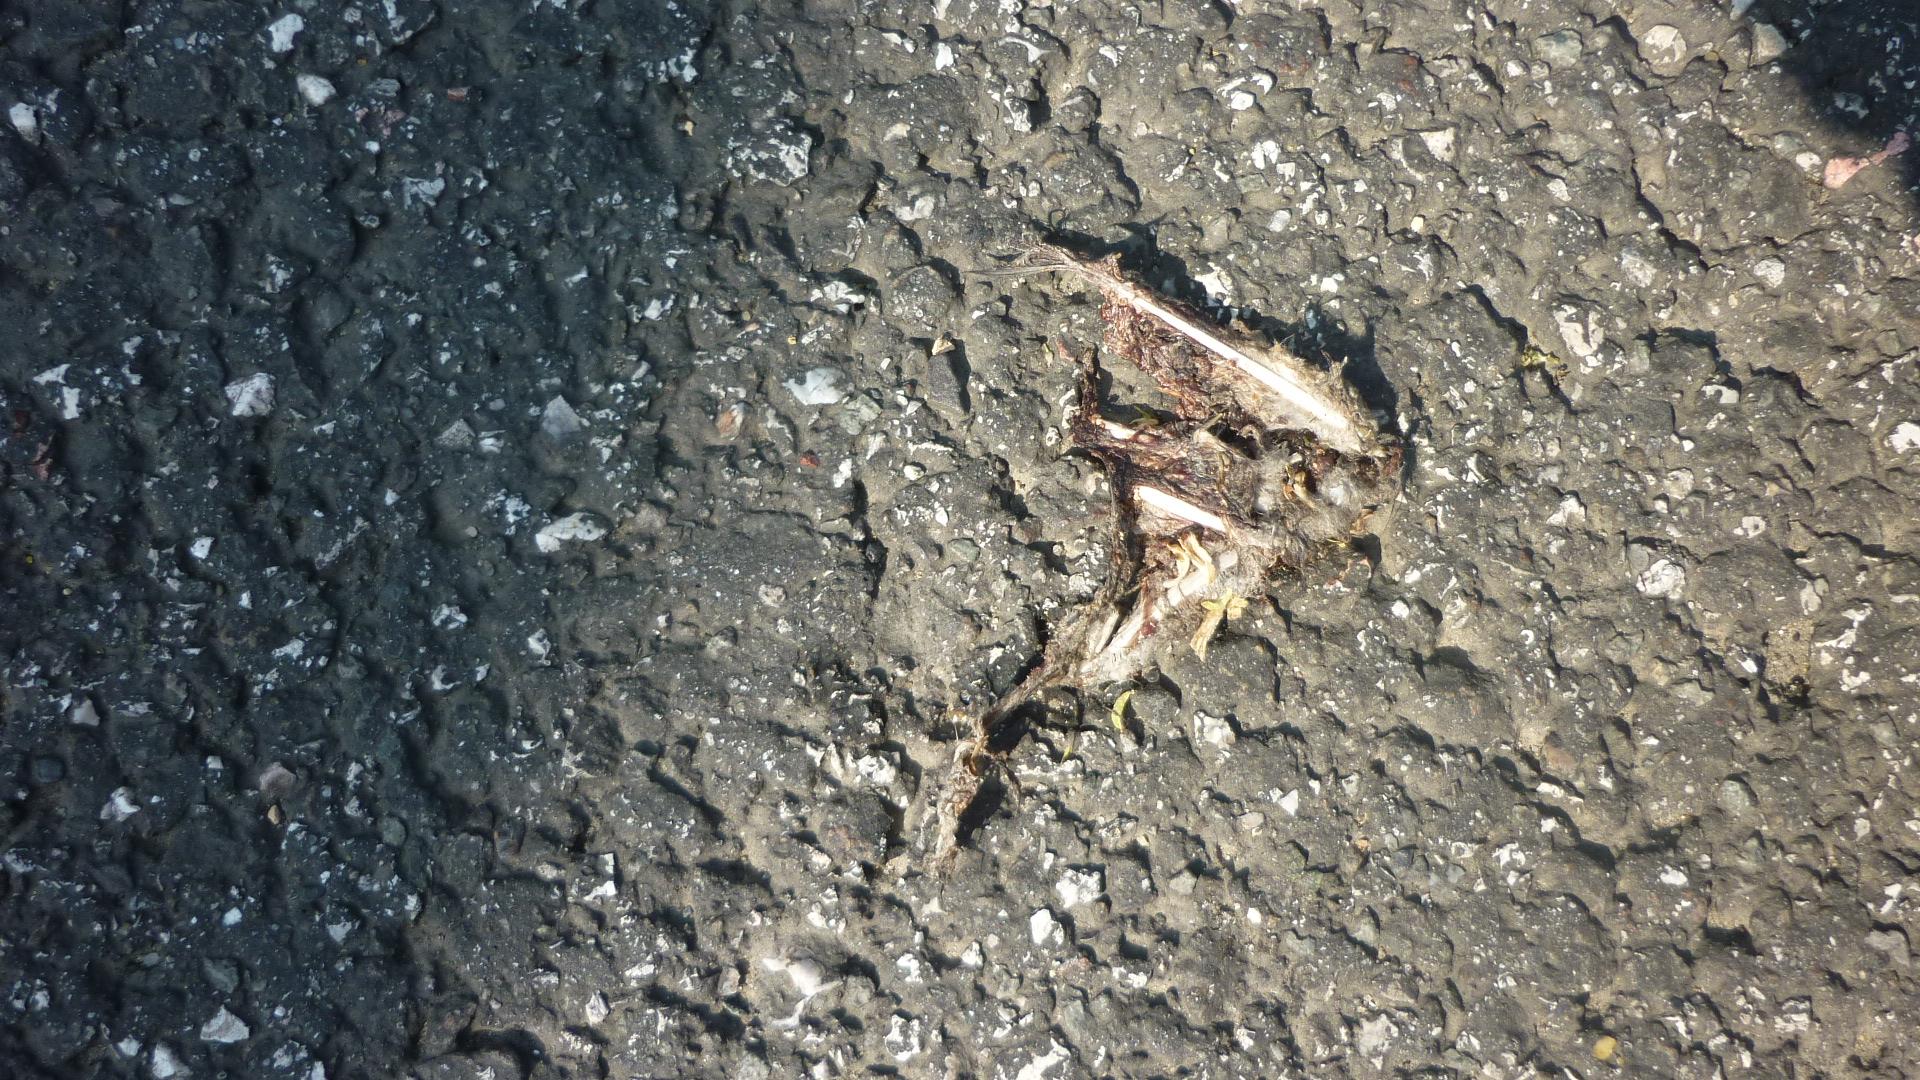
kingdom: Animalia
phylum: Chordata
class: Aves
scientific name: Aves
